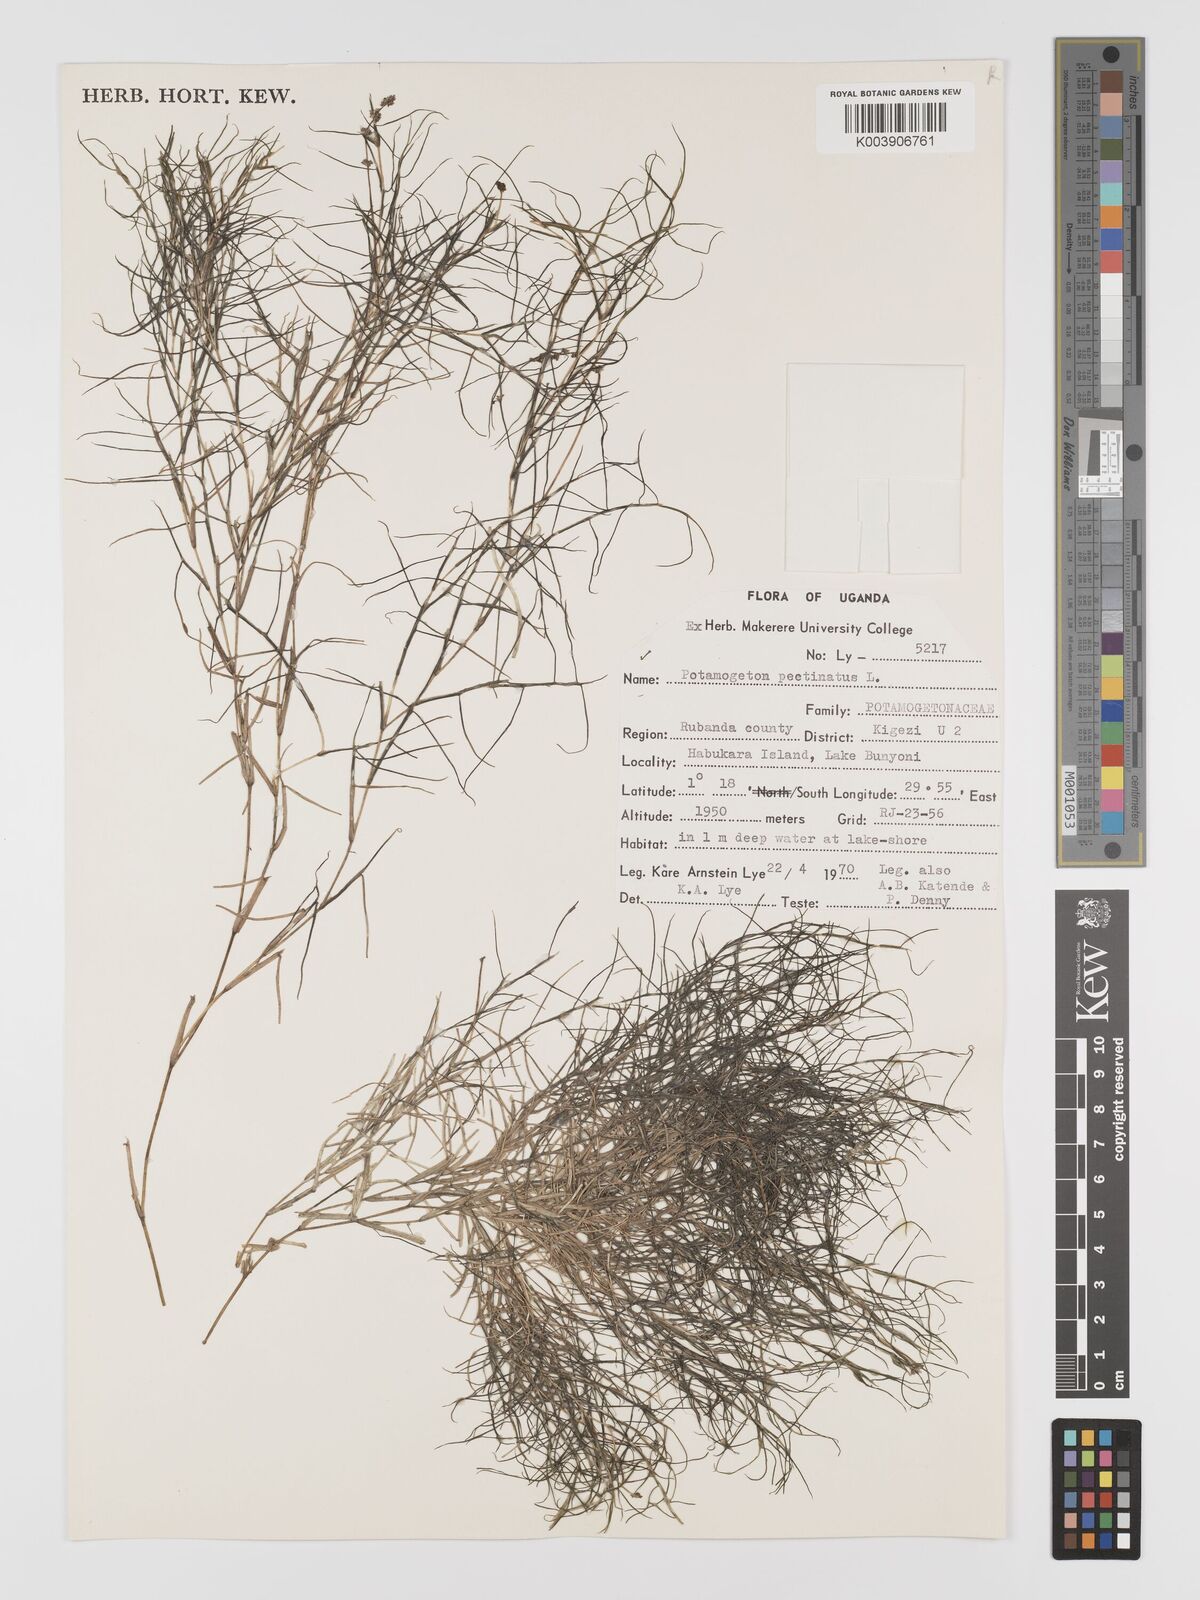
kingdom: Plantae
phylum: Tracheophyta
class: Liliopsida
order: Alismatales
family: Potamogetonaceae
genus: Stuckenia
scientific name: Stuckenia pectinata
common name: Sago pondweed
